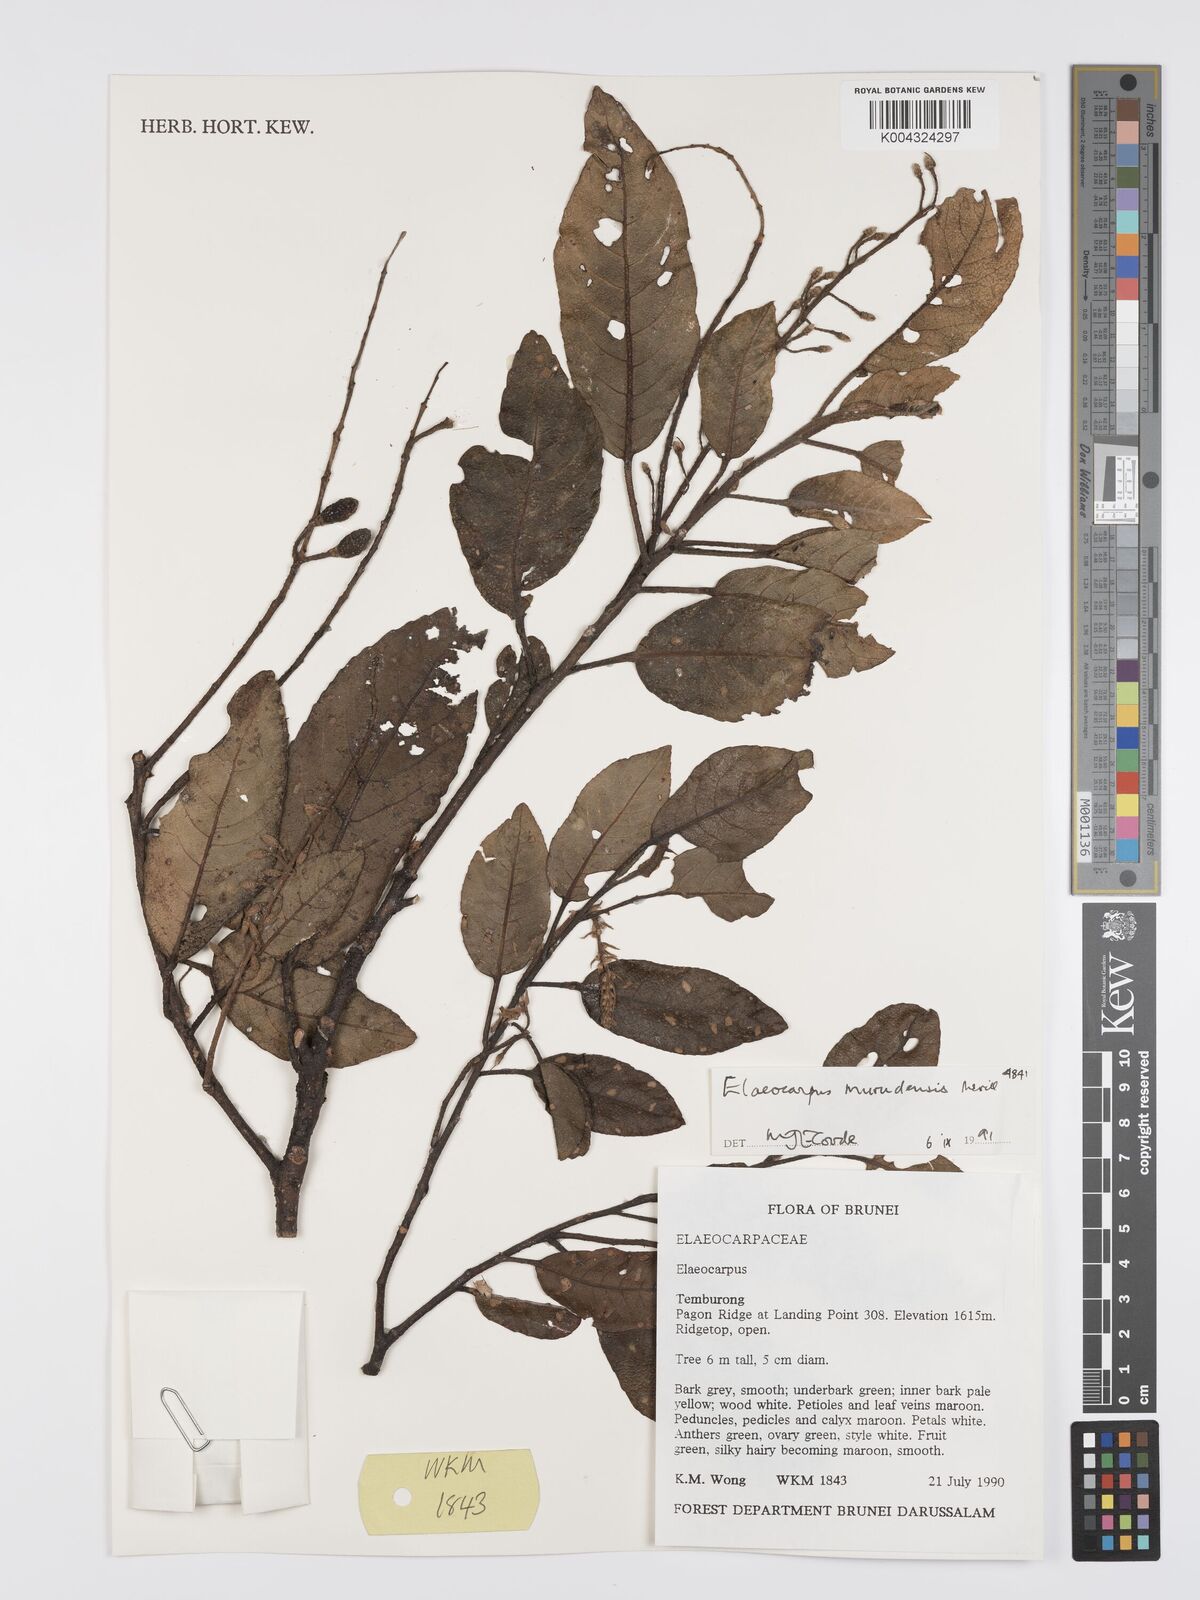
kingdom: Plantae
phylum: Tracheophyta
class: Magnoliopsida
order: Oxalidales
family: Elaeocarpaceae
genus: Elaeocarpus
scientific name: Elaeocarpus murudensis
